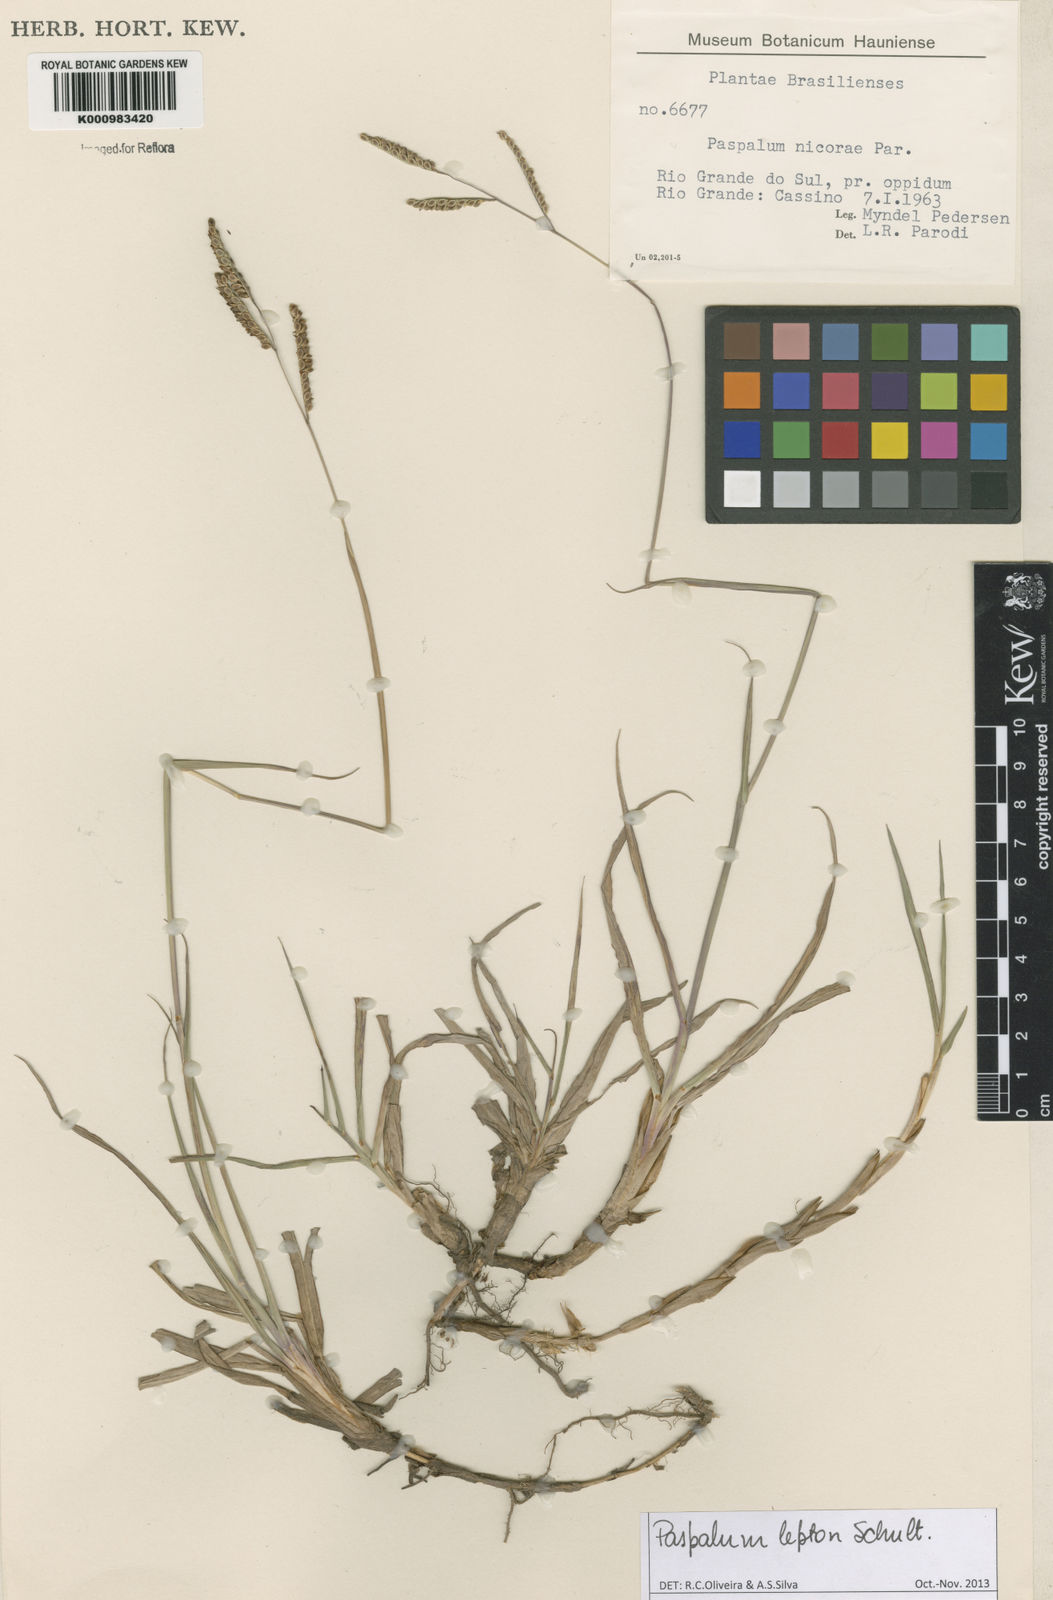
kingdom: Plantae
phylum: Tracheophyta
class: Liliopsida
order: Poales
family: Poaceae
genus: Paspalum
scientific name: Paspalum lepton
